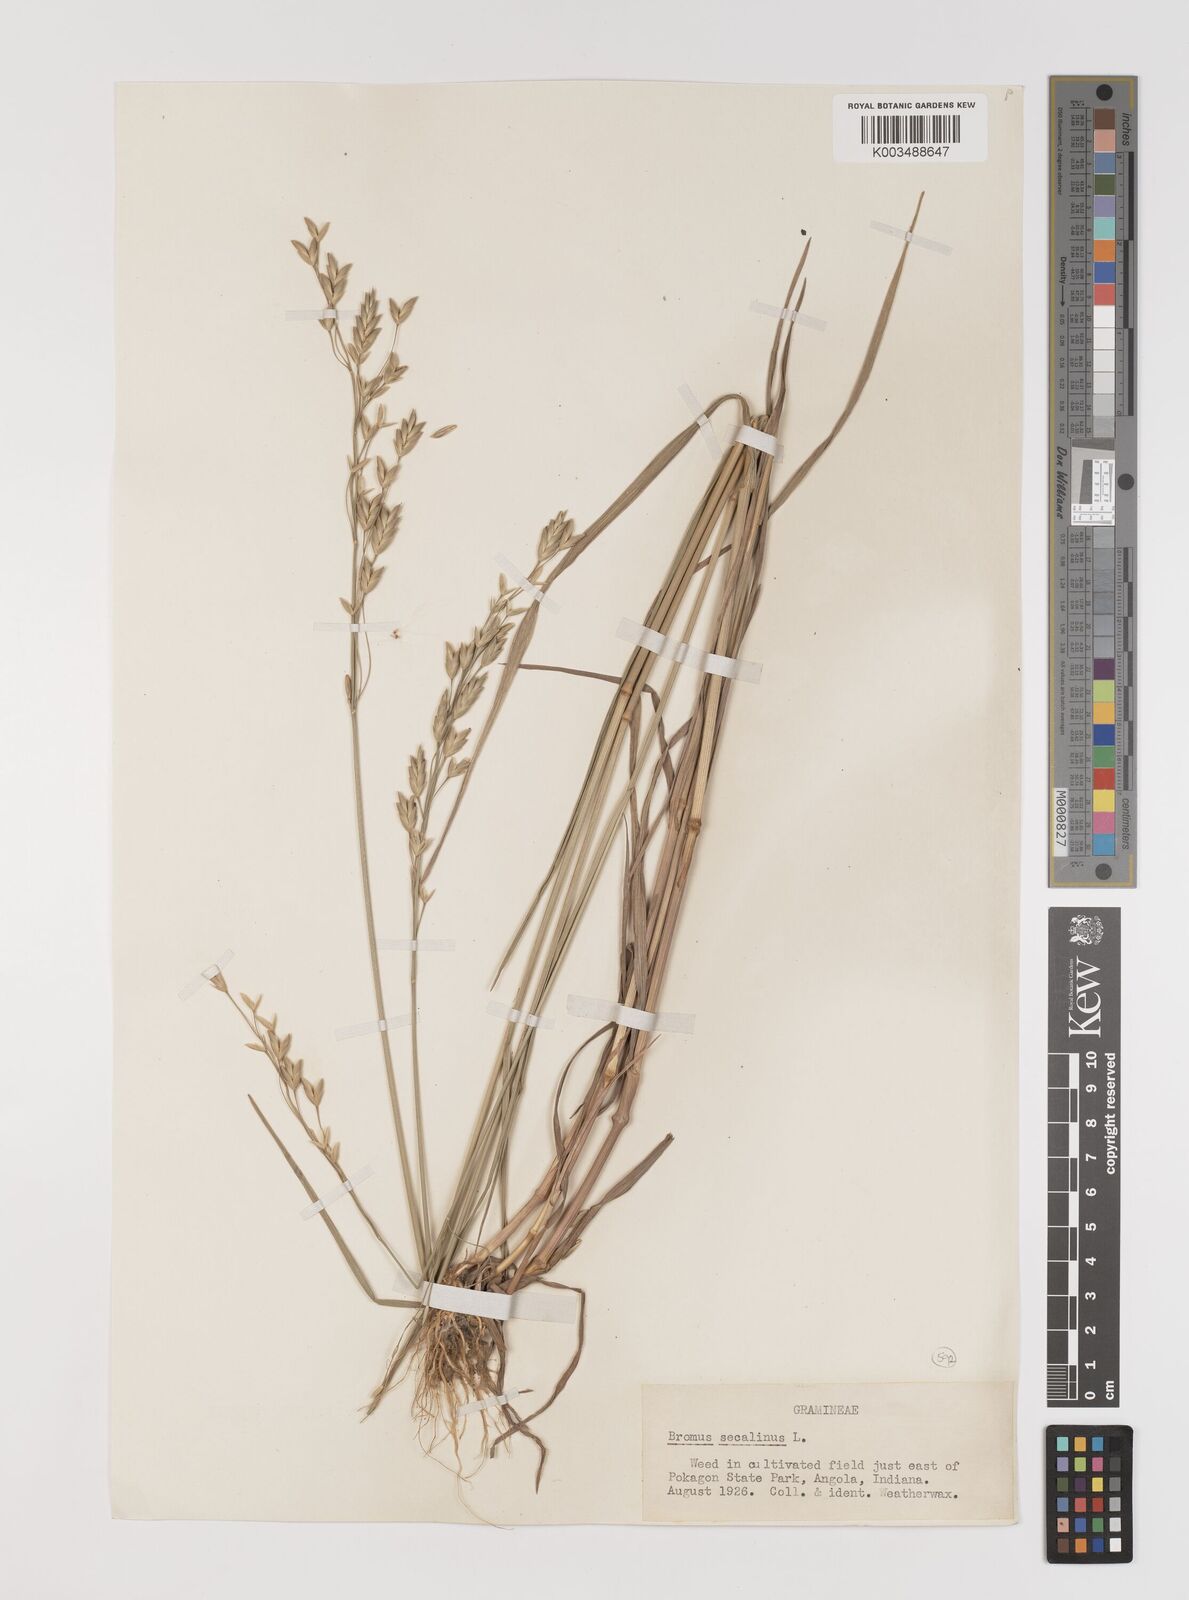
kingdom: Plantae
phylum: Tracheophyta
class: Liliopsida
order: Poales
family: Poaceae
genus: Bromus
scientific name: Bromus secalinus
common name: Rye brome
